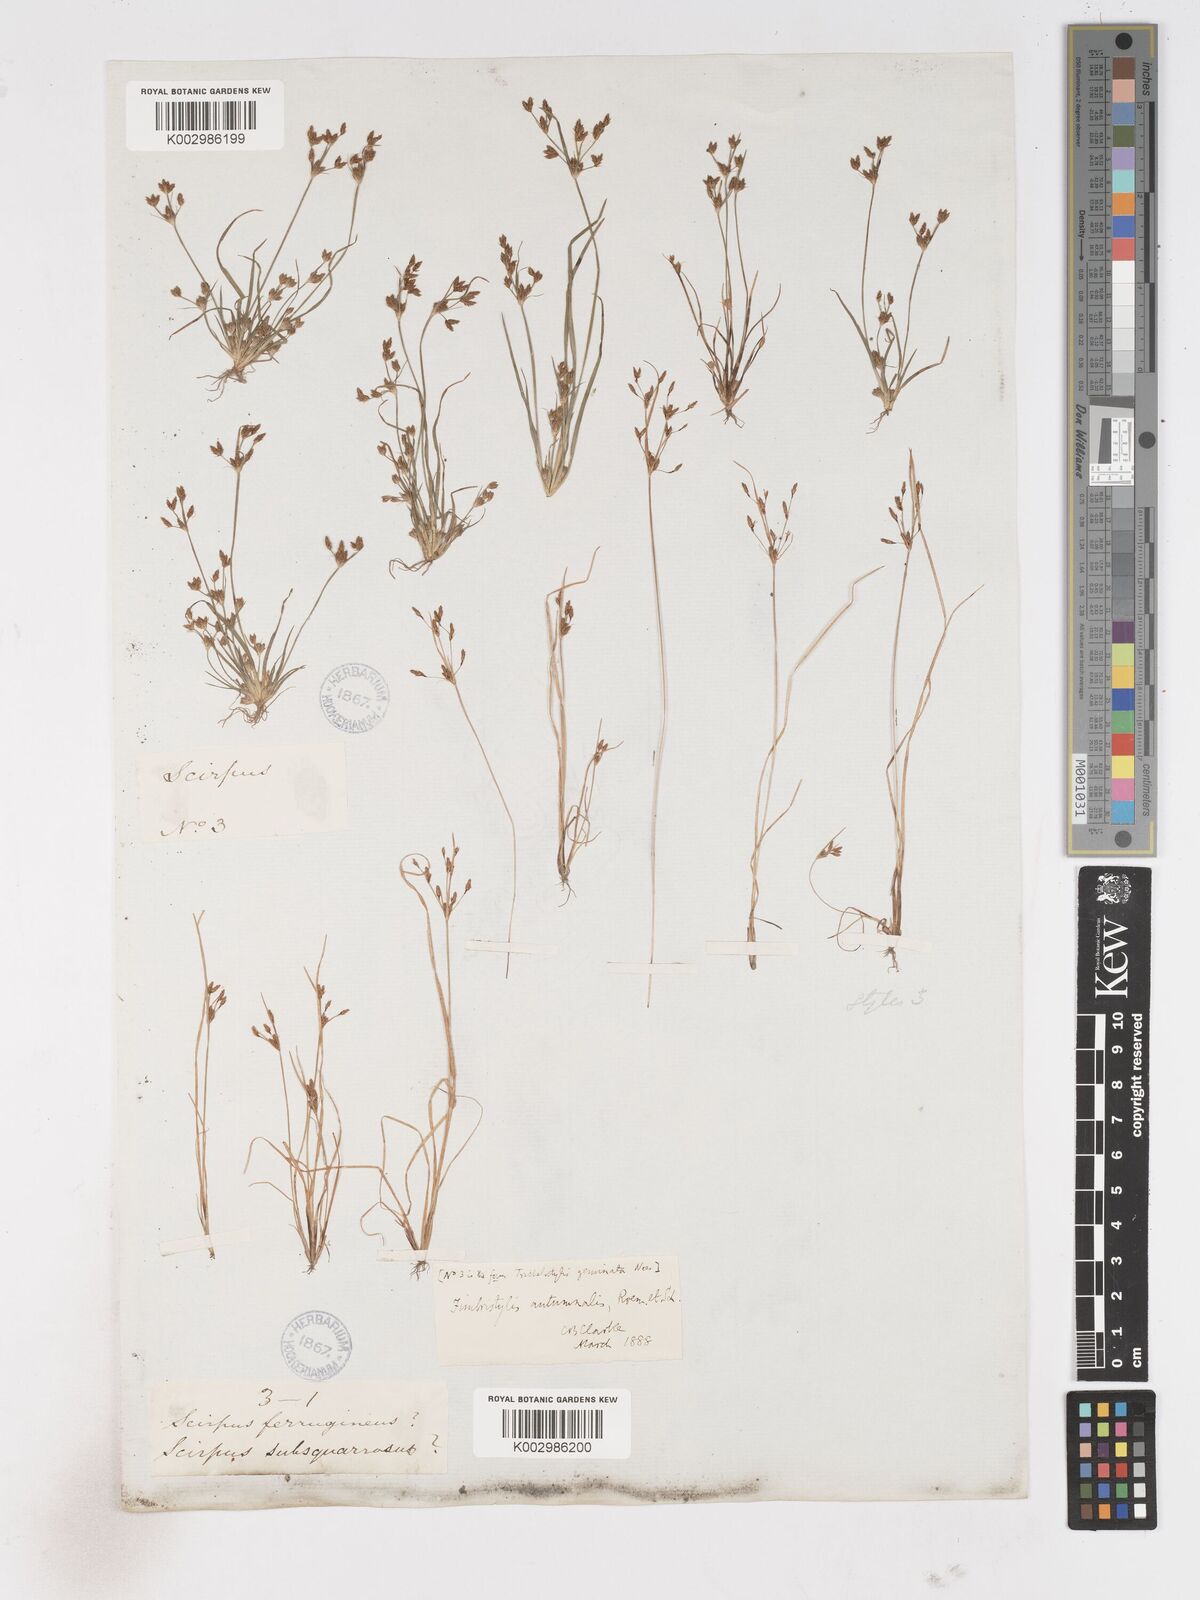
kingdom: Plantae
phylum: Tracheophyta
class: Liliopsida
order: Poales
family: Cyperaceae
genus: Fimbristylis
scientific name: Fimbristylis autumnalis
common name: Slender fimbristylis
